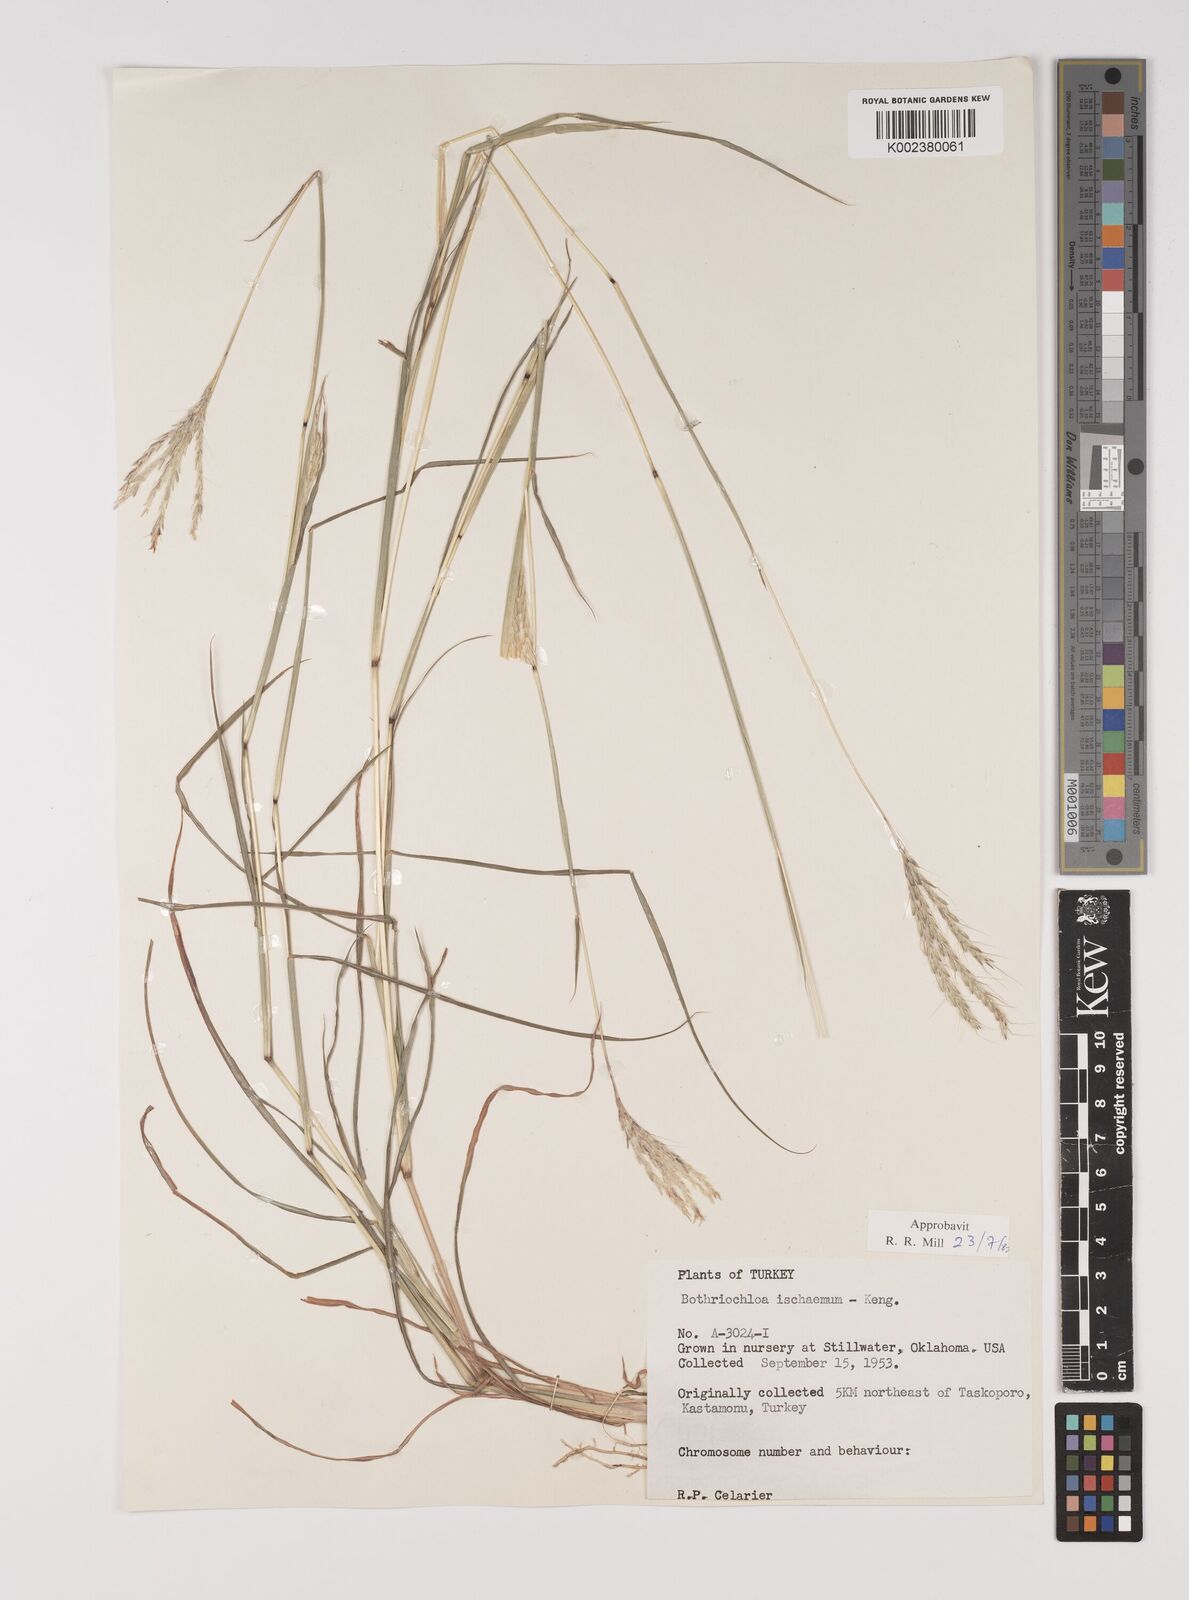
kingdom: Plantae
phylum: Tracheophyta
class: Liliopsida
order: Poales
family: Poaceae
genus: Bothriochloa
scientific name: Bothriochloa ischaemum
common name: Yellow bluestem
